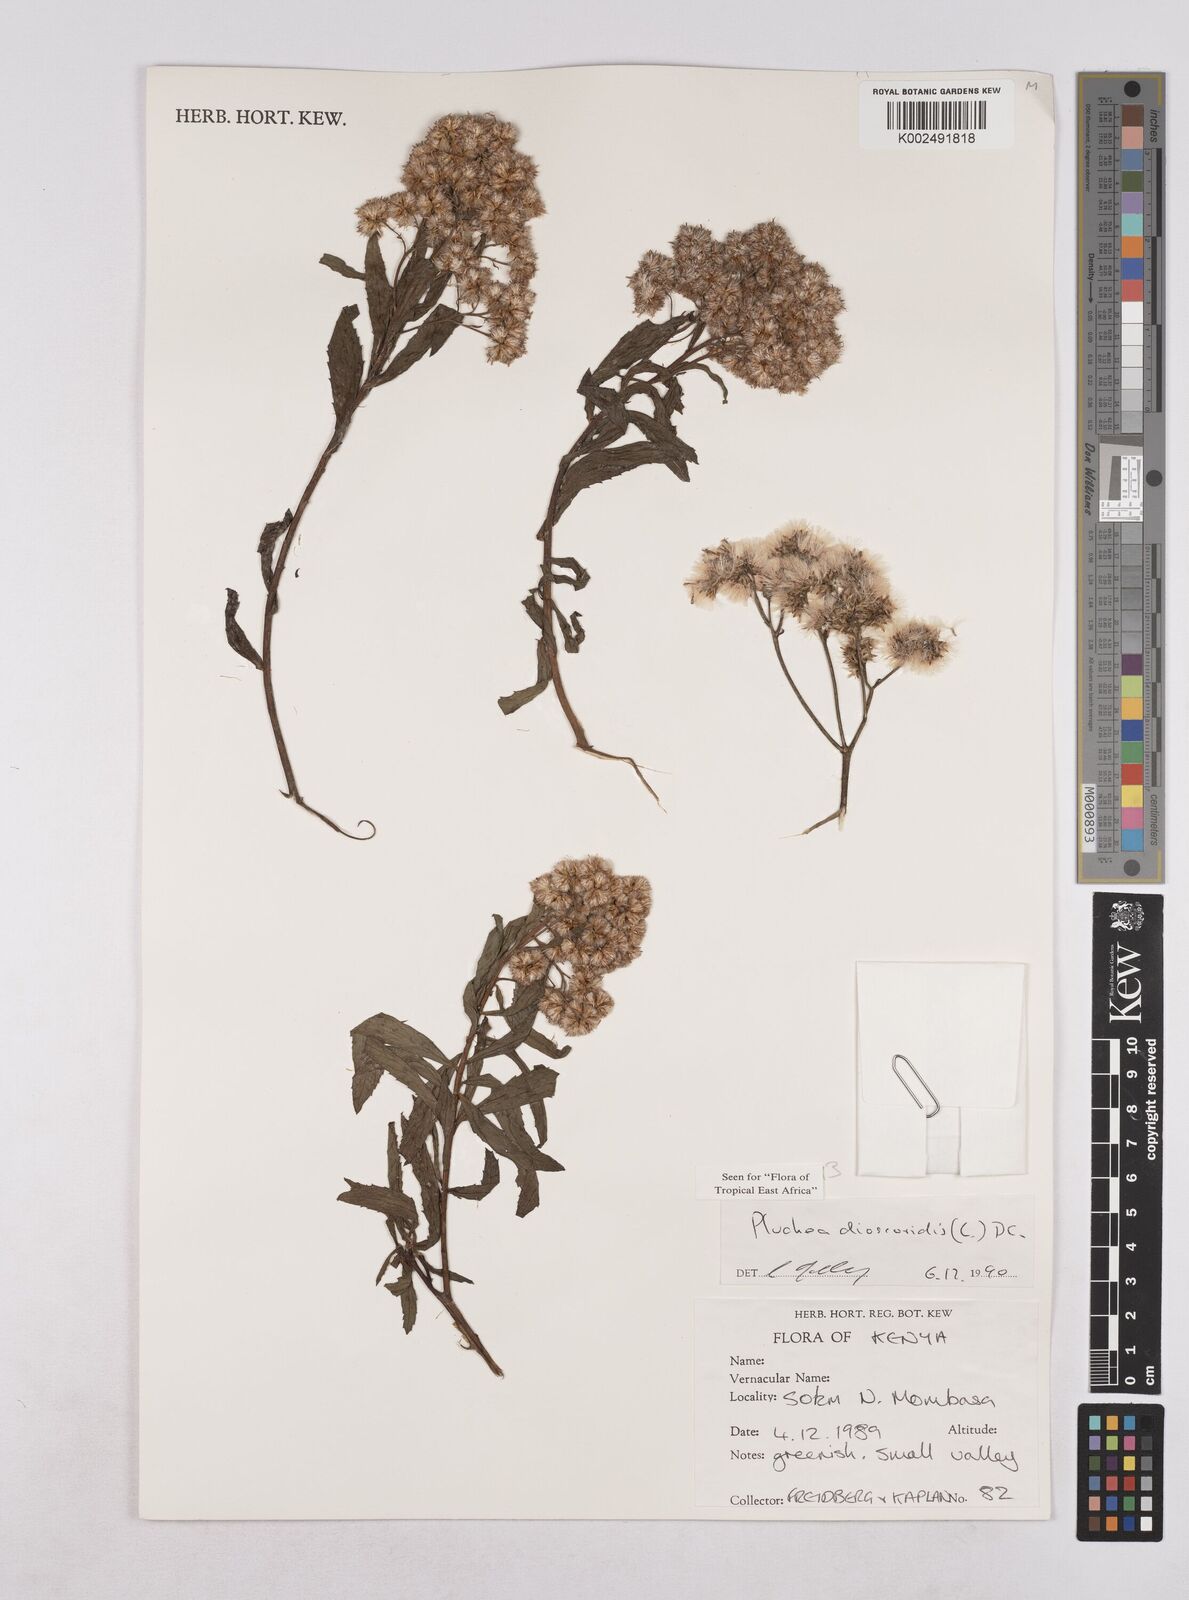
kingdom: Plantae
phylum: Tracheophyta
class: Magnoliopsida
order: Asterales
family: Asteraceae
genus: Pluchea
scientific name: Pluchea dioscoridis
